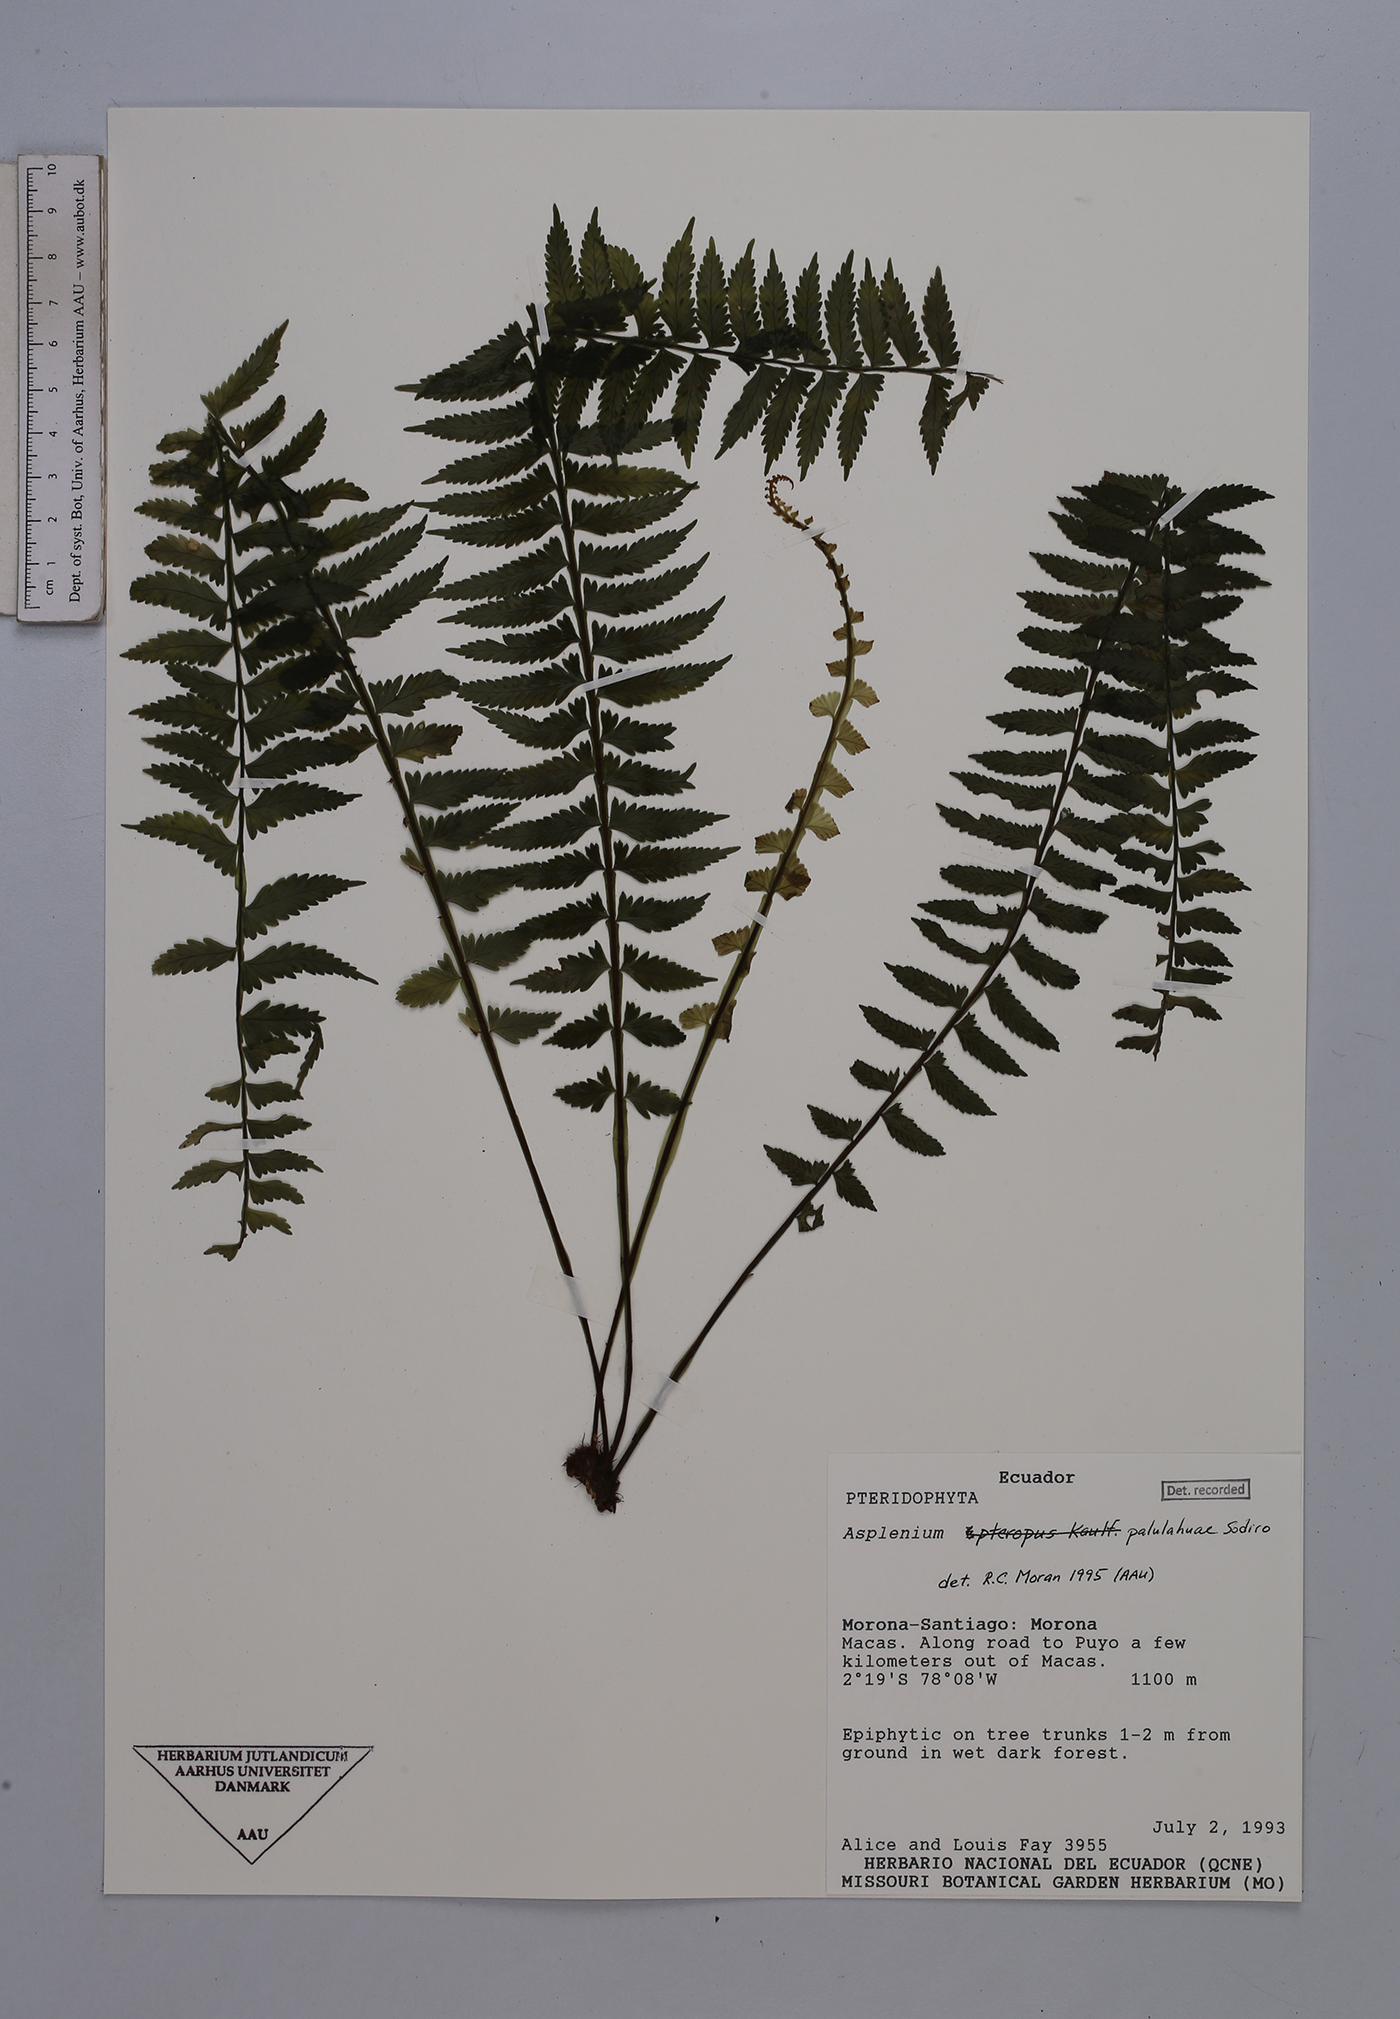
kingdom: Plantae
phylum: Tracheophyta
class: Polypodiopsida
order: Polypodiales
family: Aspleniaceae
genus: Asplenium
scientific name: Asplenium pululahuae
